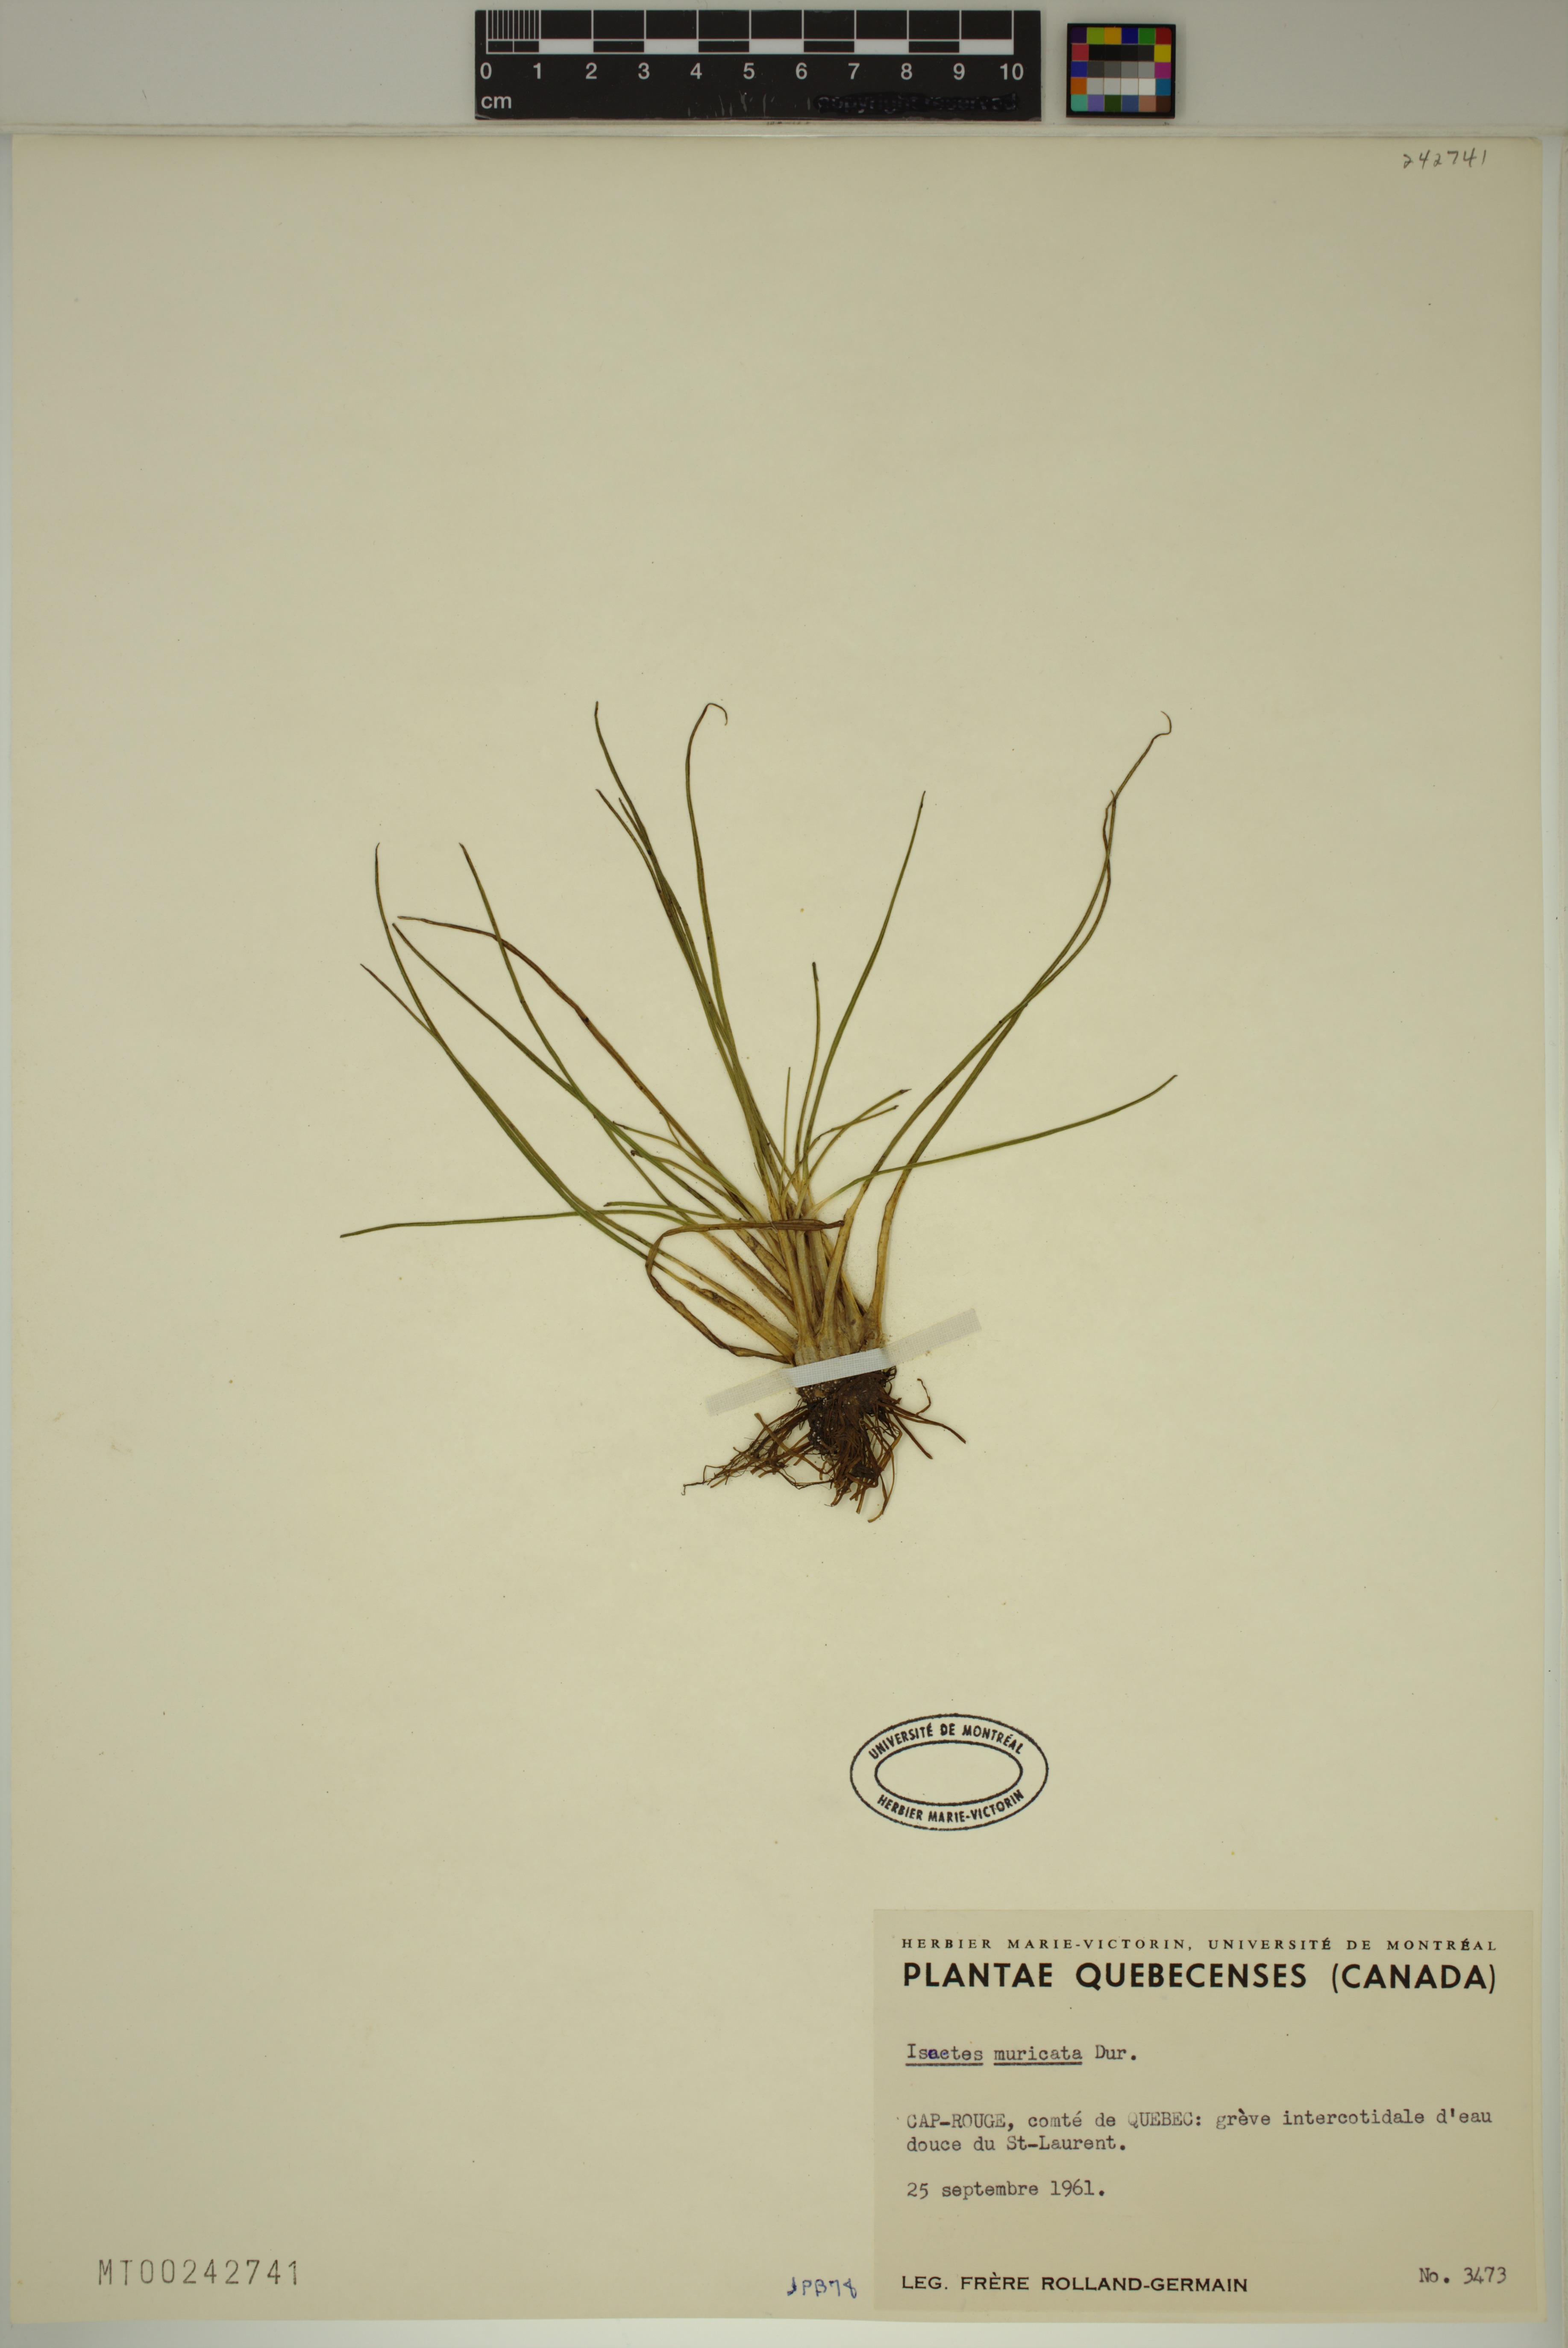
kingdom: Plantae
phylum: Tracheophyta
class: Lycopodiopsida
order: Isoetales
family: Isoetaceae
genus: Isoetes
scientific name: Isoetes laurentiana
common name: St. lawrence quillwort
